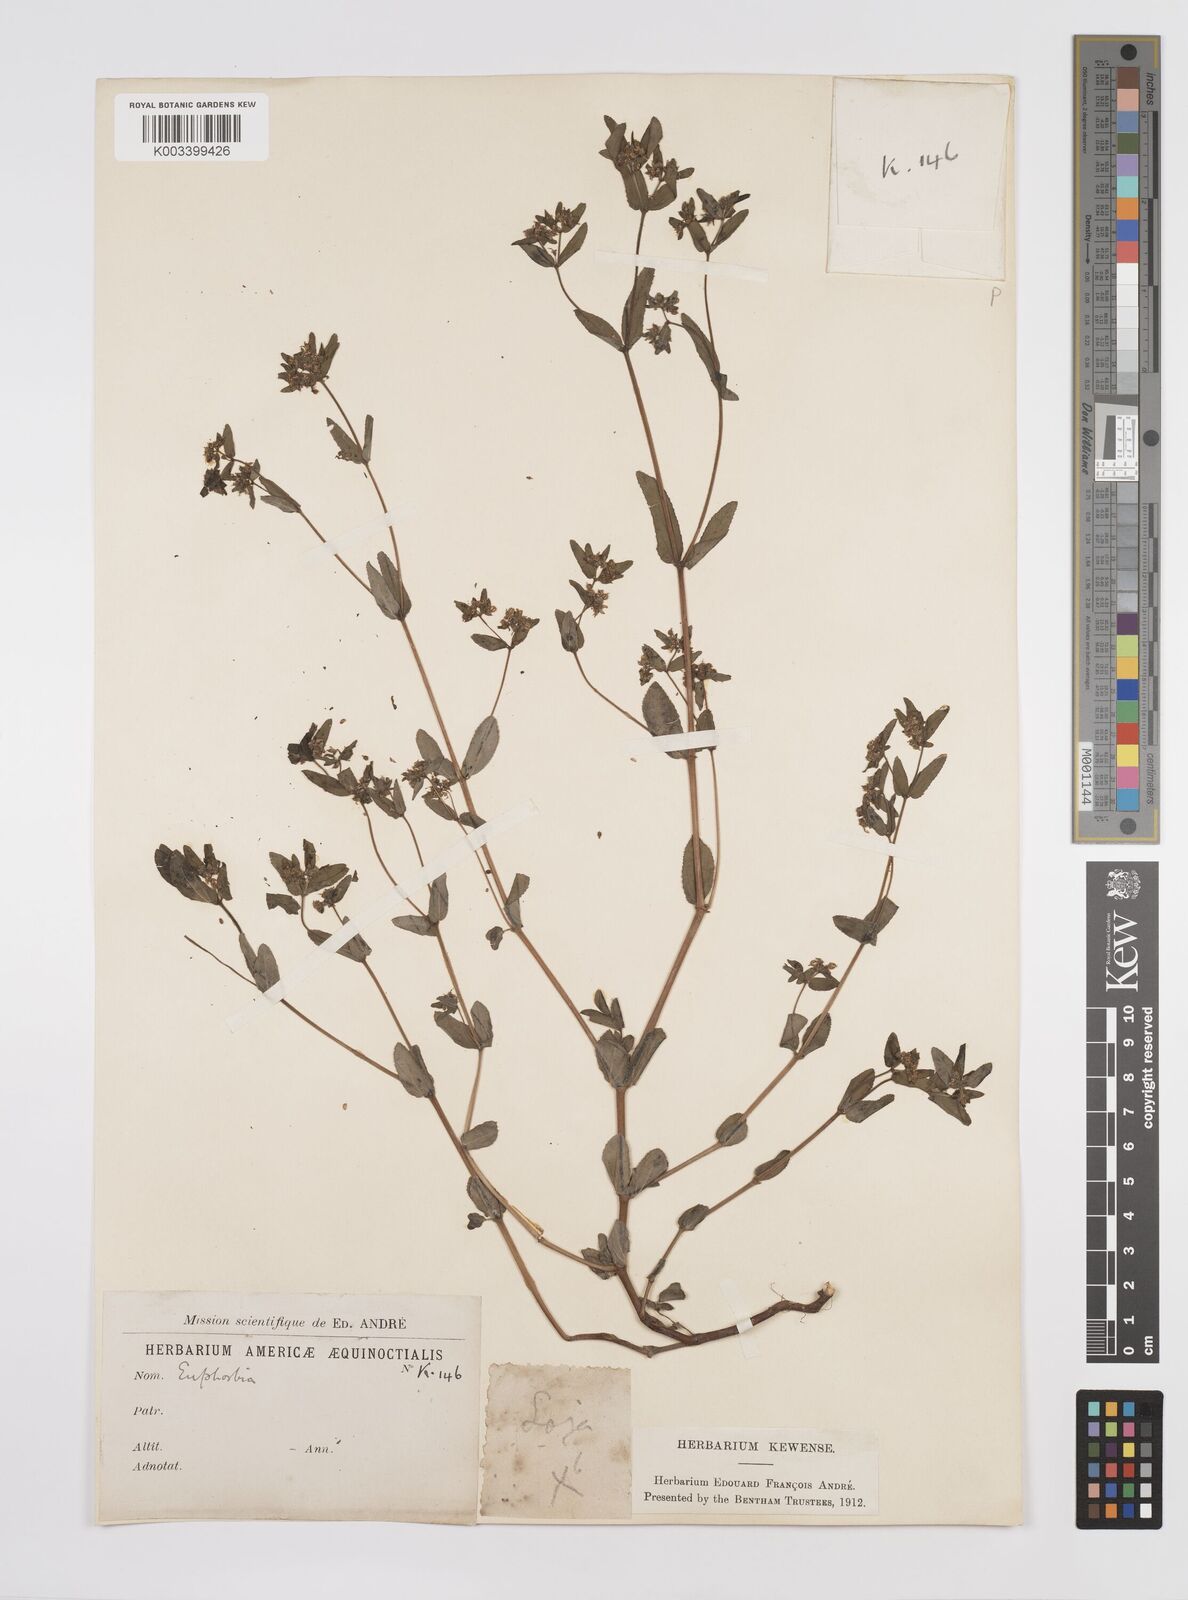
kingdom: Plantae
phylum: Tracheophyta
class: Magnoliopsida
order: Malpighiales
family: Euphorbiaceae
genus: Euphorbia
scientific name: Euphorbia
